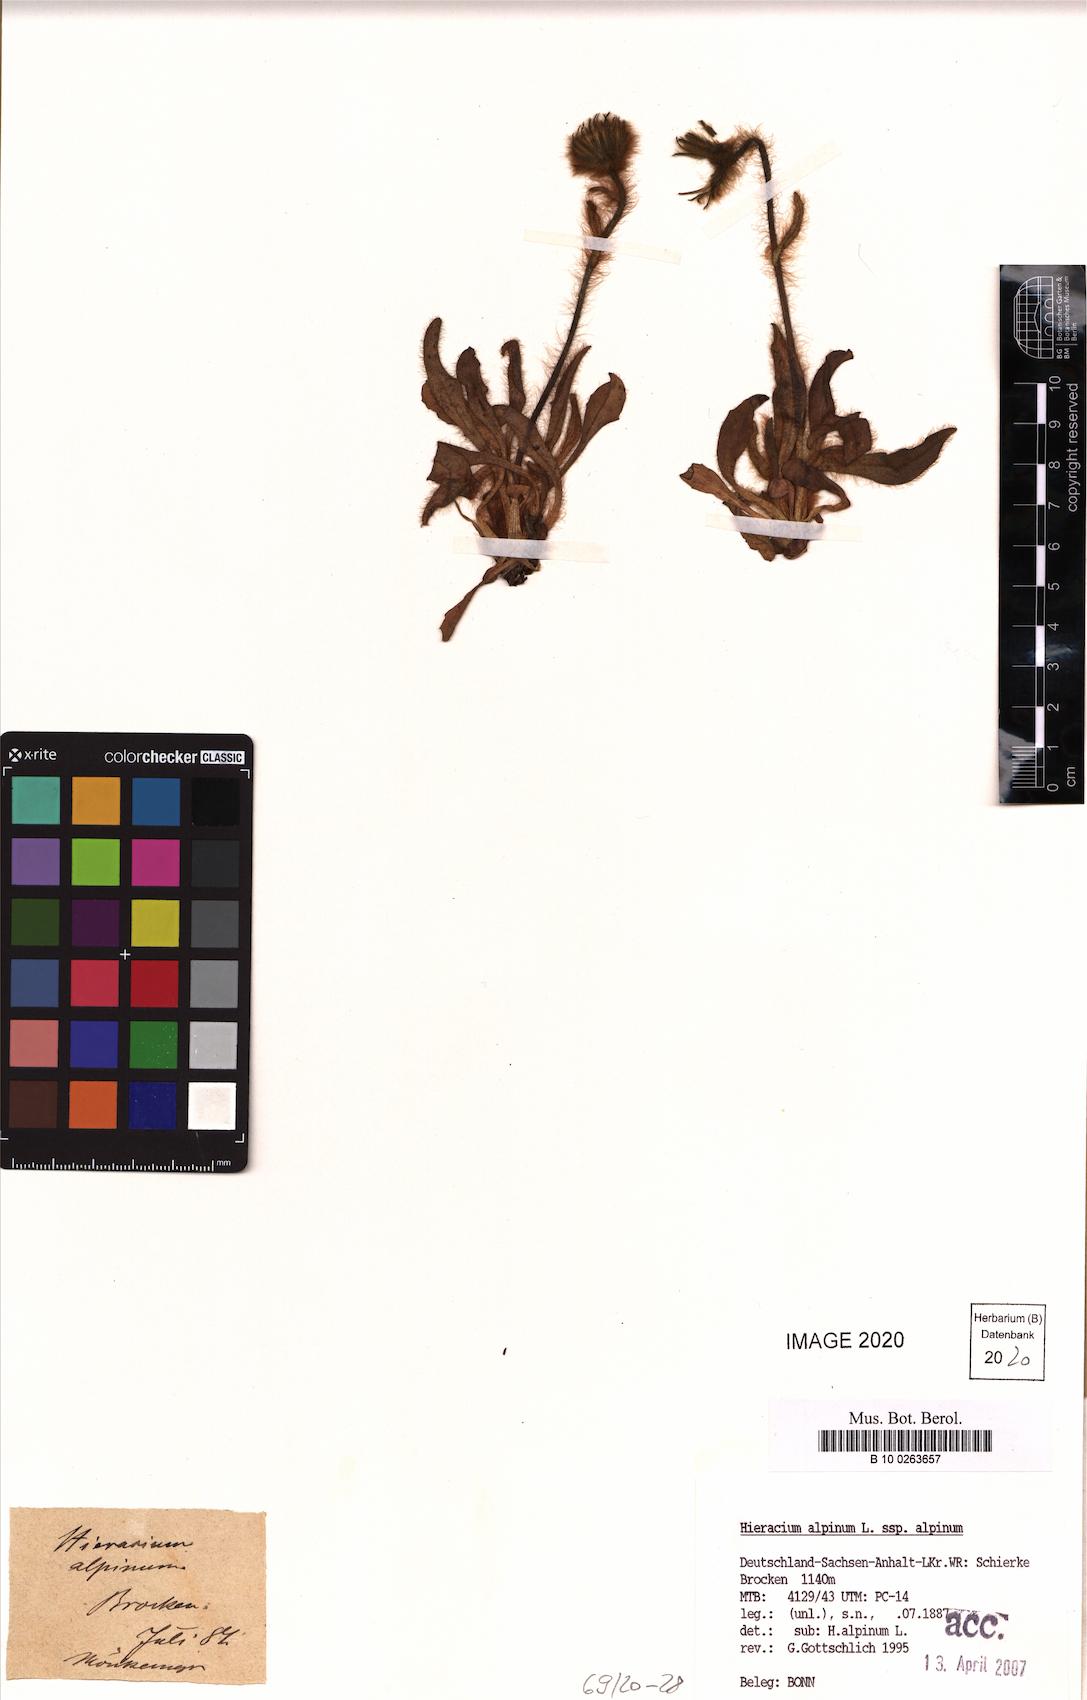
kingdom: Plantae
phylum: Tracheophyta
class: Magnoliopsida
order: Asterales
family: Asteraceae
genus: Hieracium
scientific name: Hieracium alpinum
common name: Alpine hawkweed
